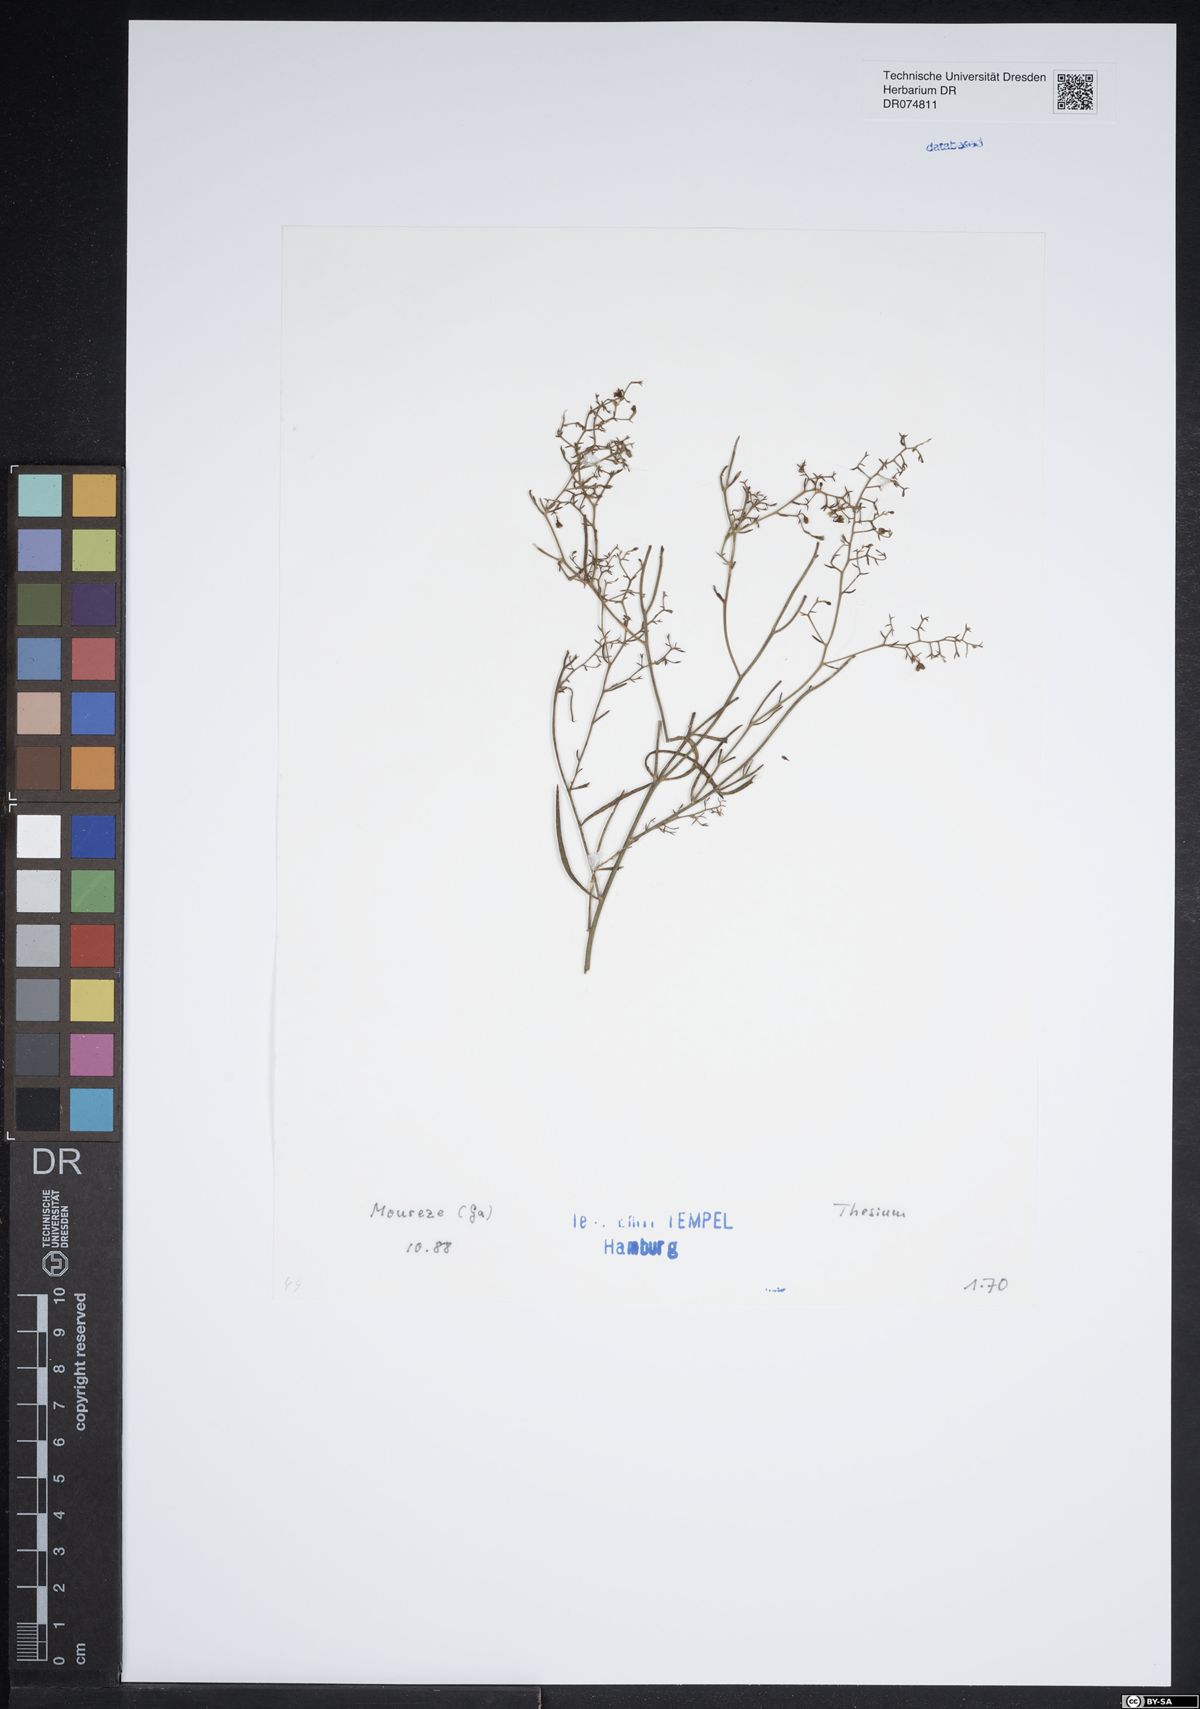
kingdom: Plantae
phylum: Tracheophyta
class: Magnoliopsida
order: Santalales
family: Thesiaceae
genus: Thesium
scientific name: Thesium
